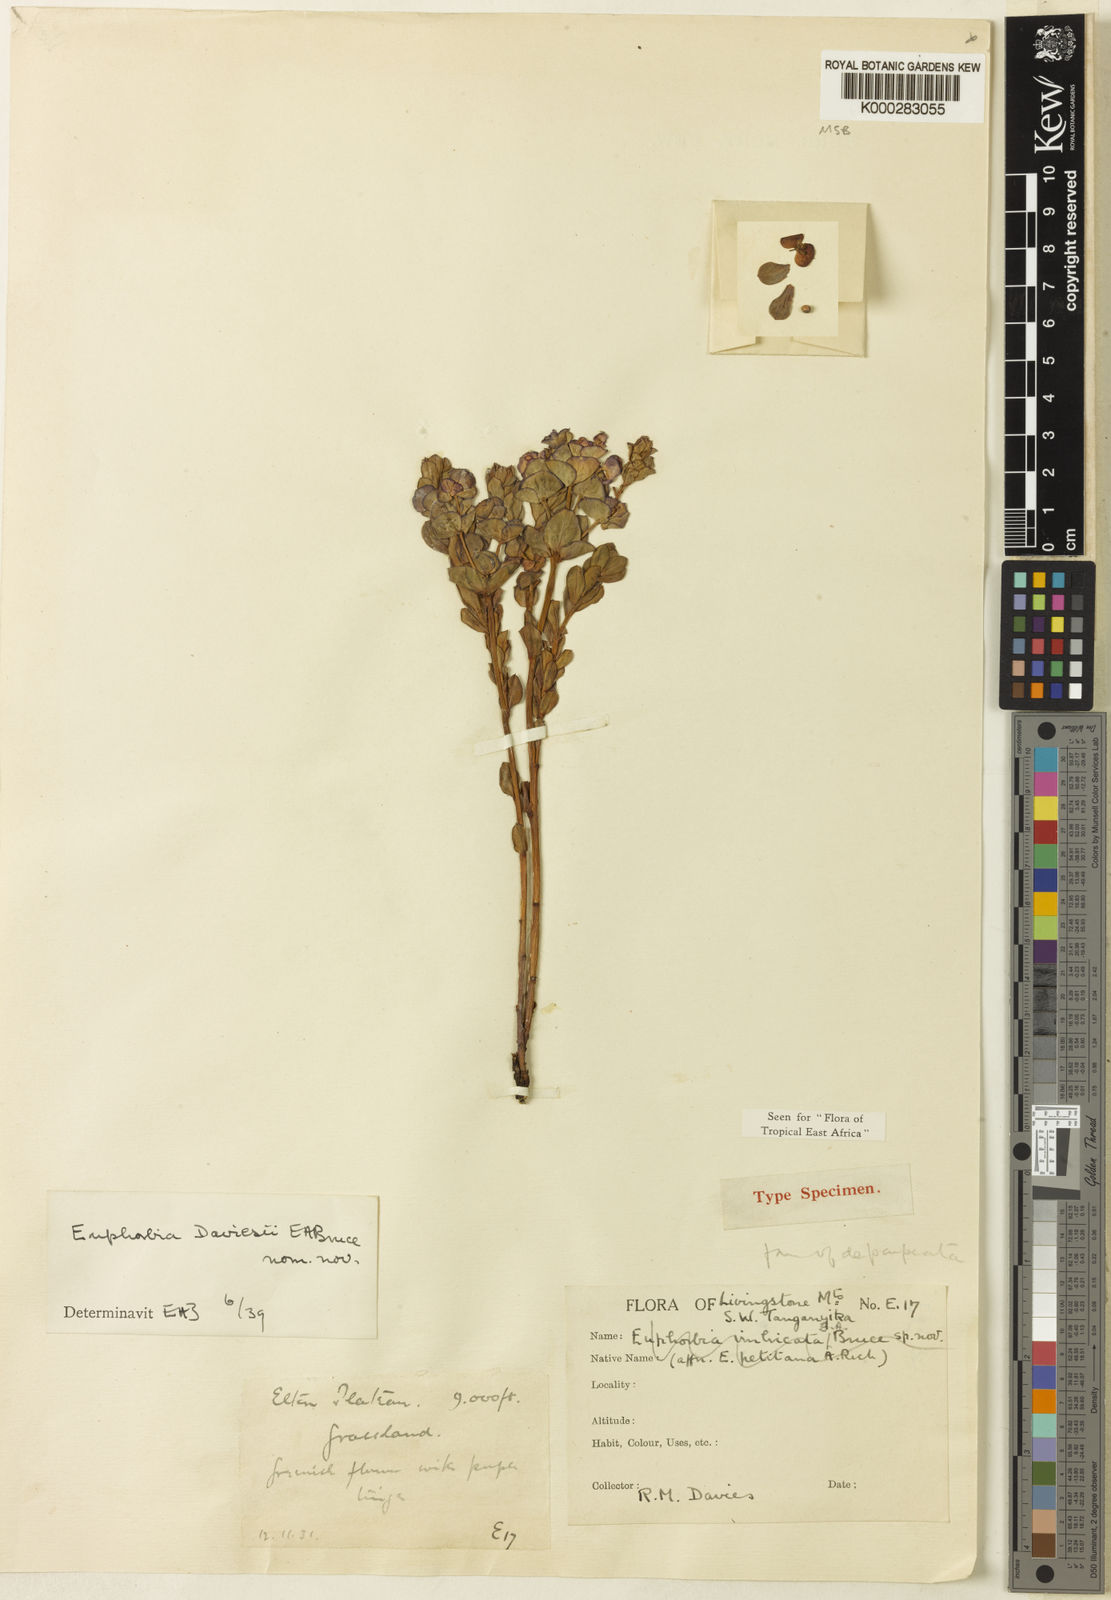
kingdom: Plantae
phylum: Tracheophyta
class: Magnoliopsida
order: Malpighiales
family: Euphorbiaceae
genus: Euphorbia
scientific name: Euphorbia daviesii
